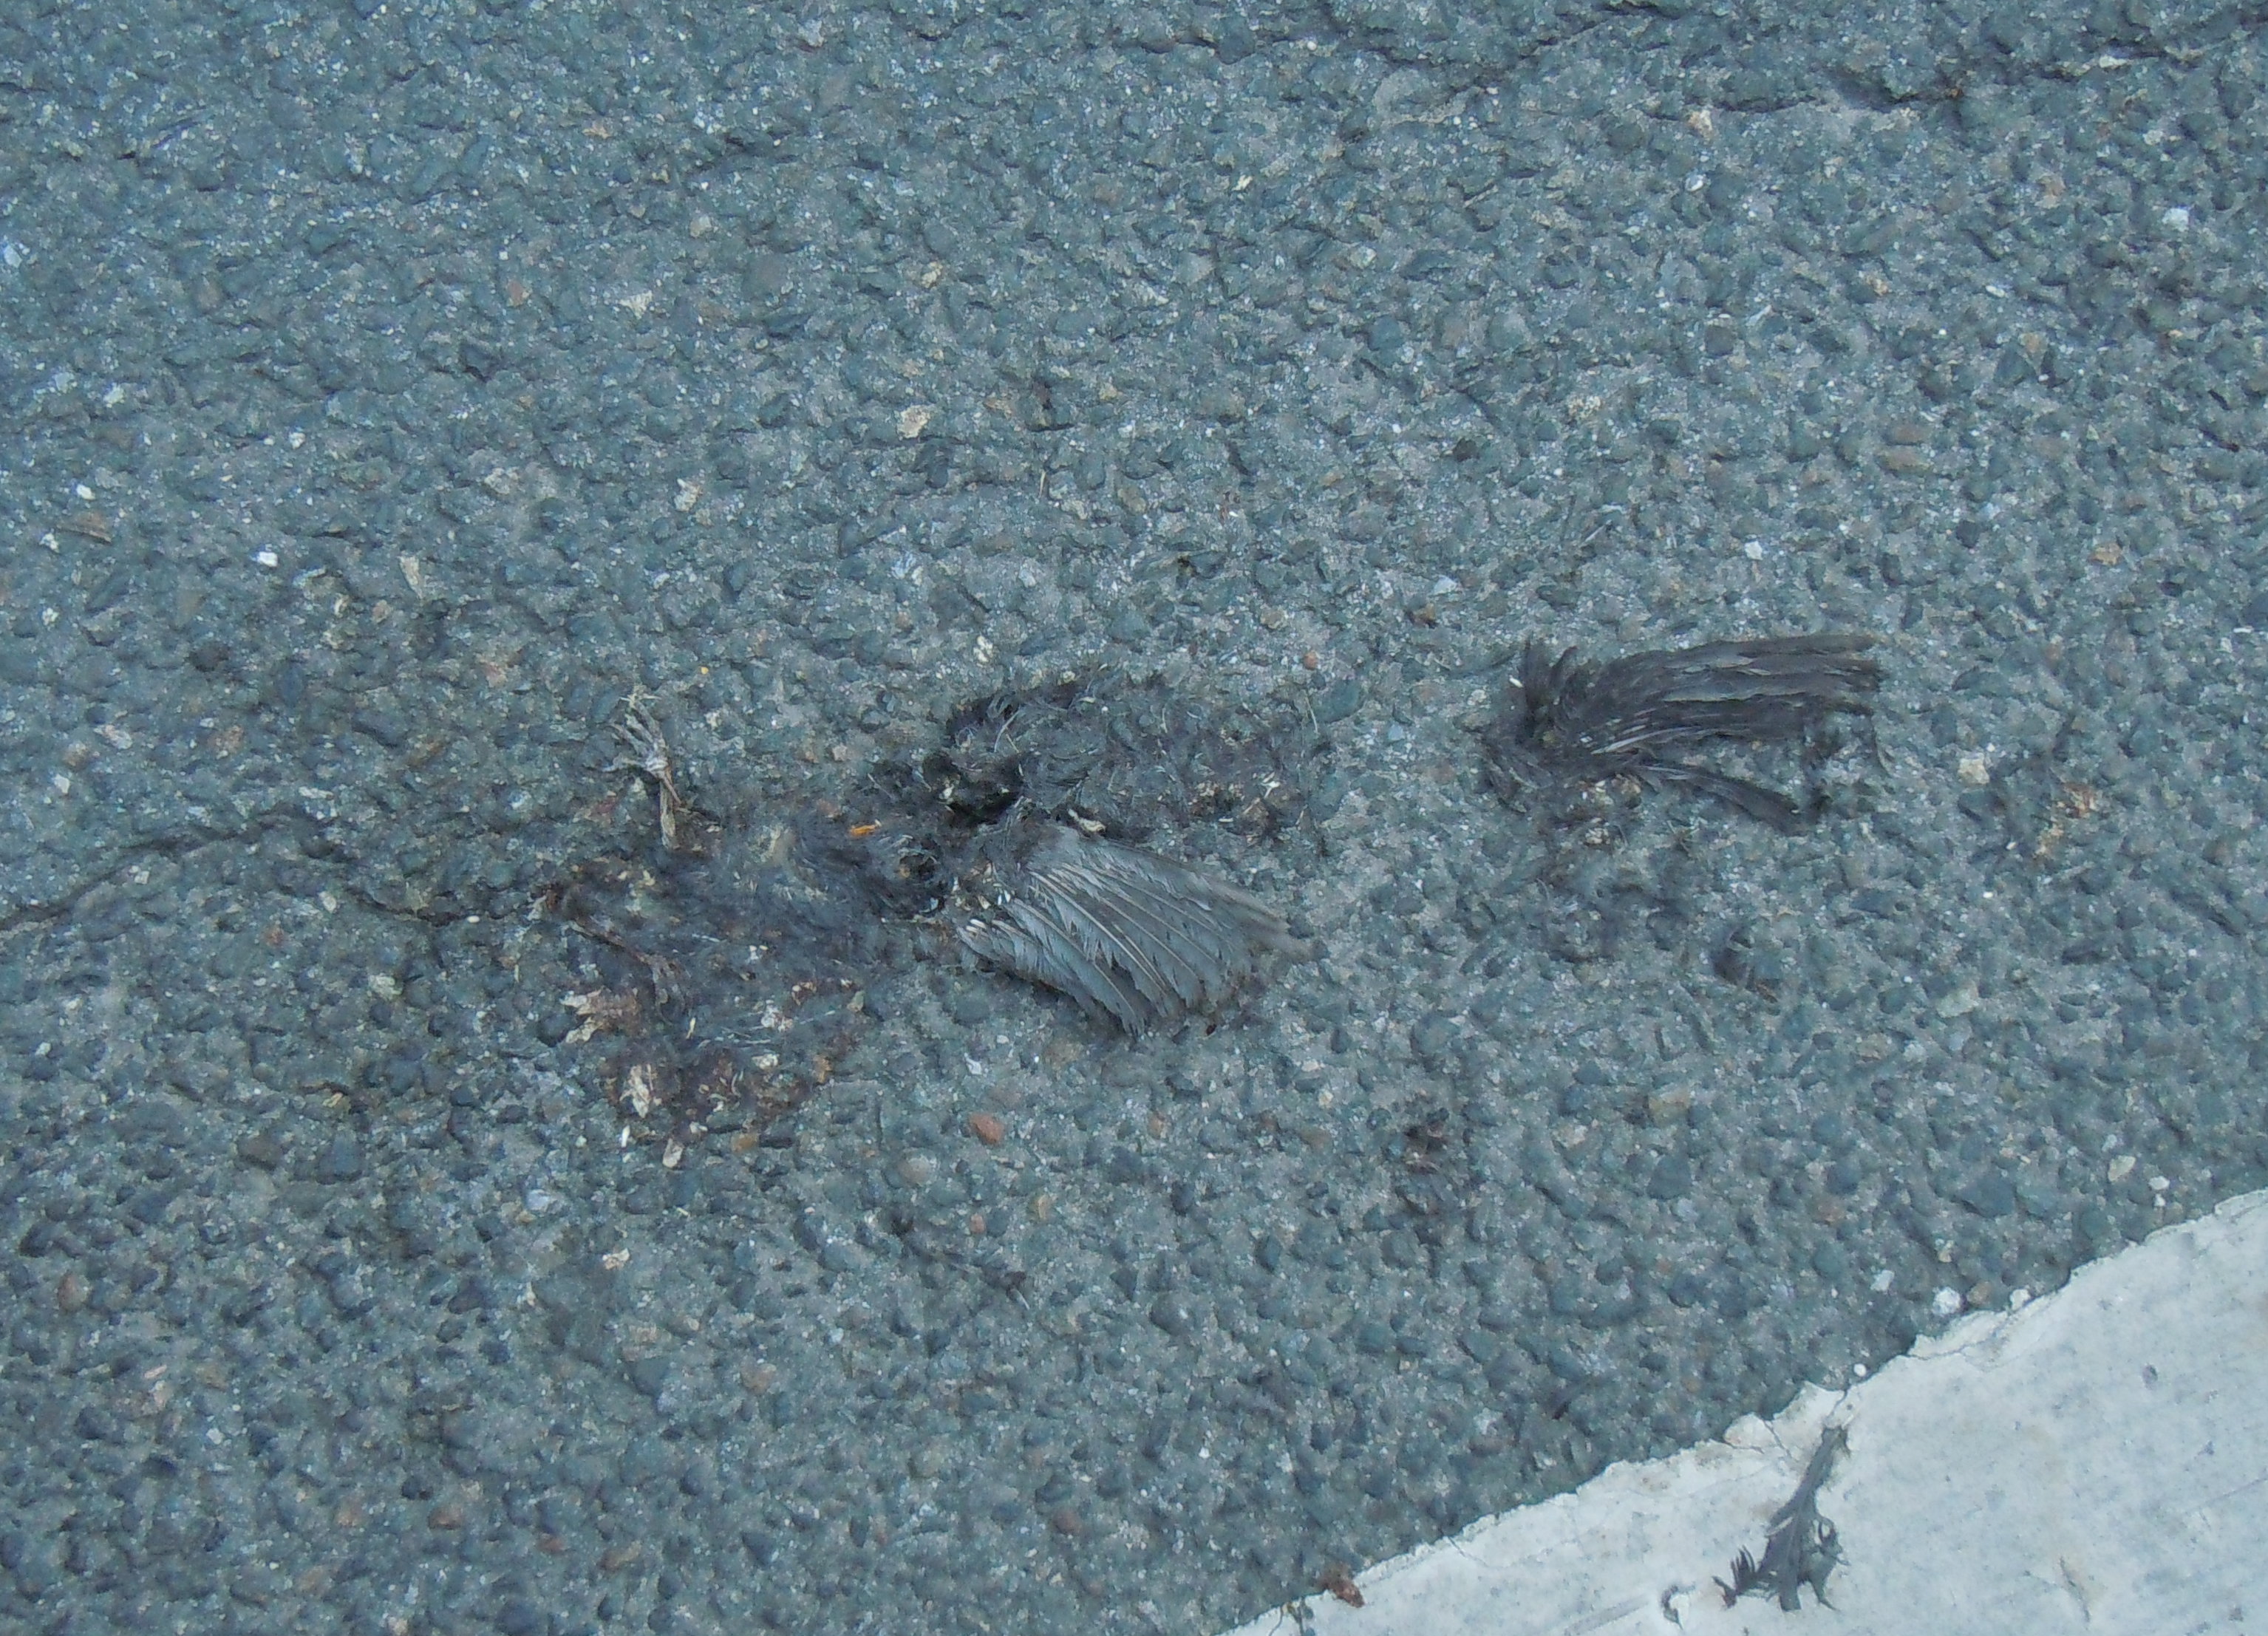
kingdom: Animalia
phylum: Chordata
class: Aves
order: Passeriformes
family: Turdidae
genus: Turdus
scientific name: Turdus merula
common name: Common blackbird
